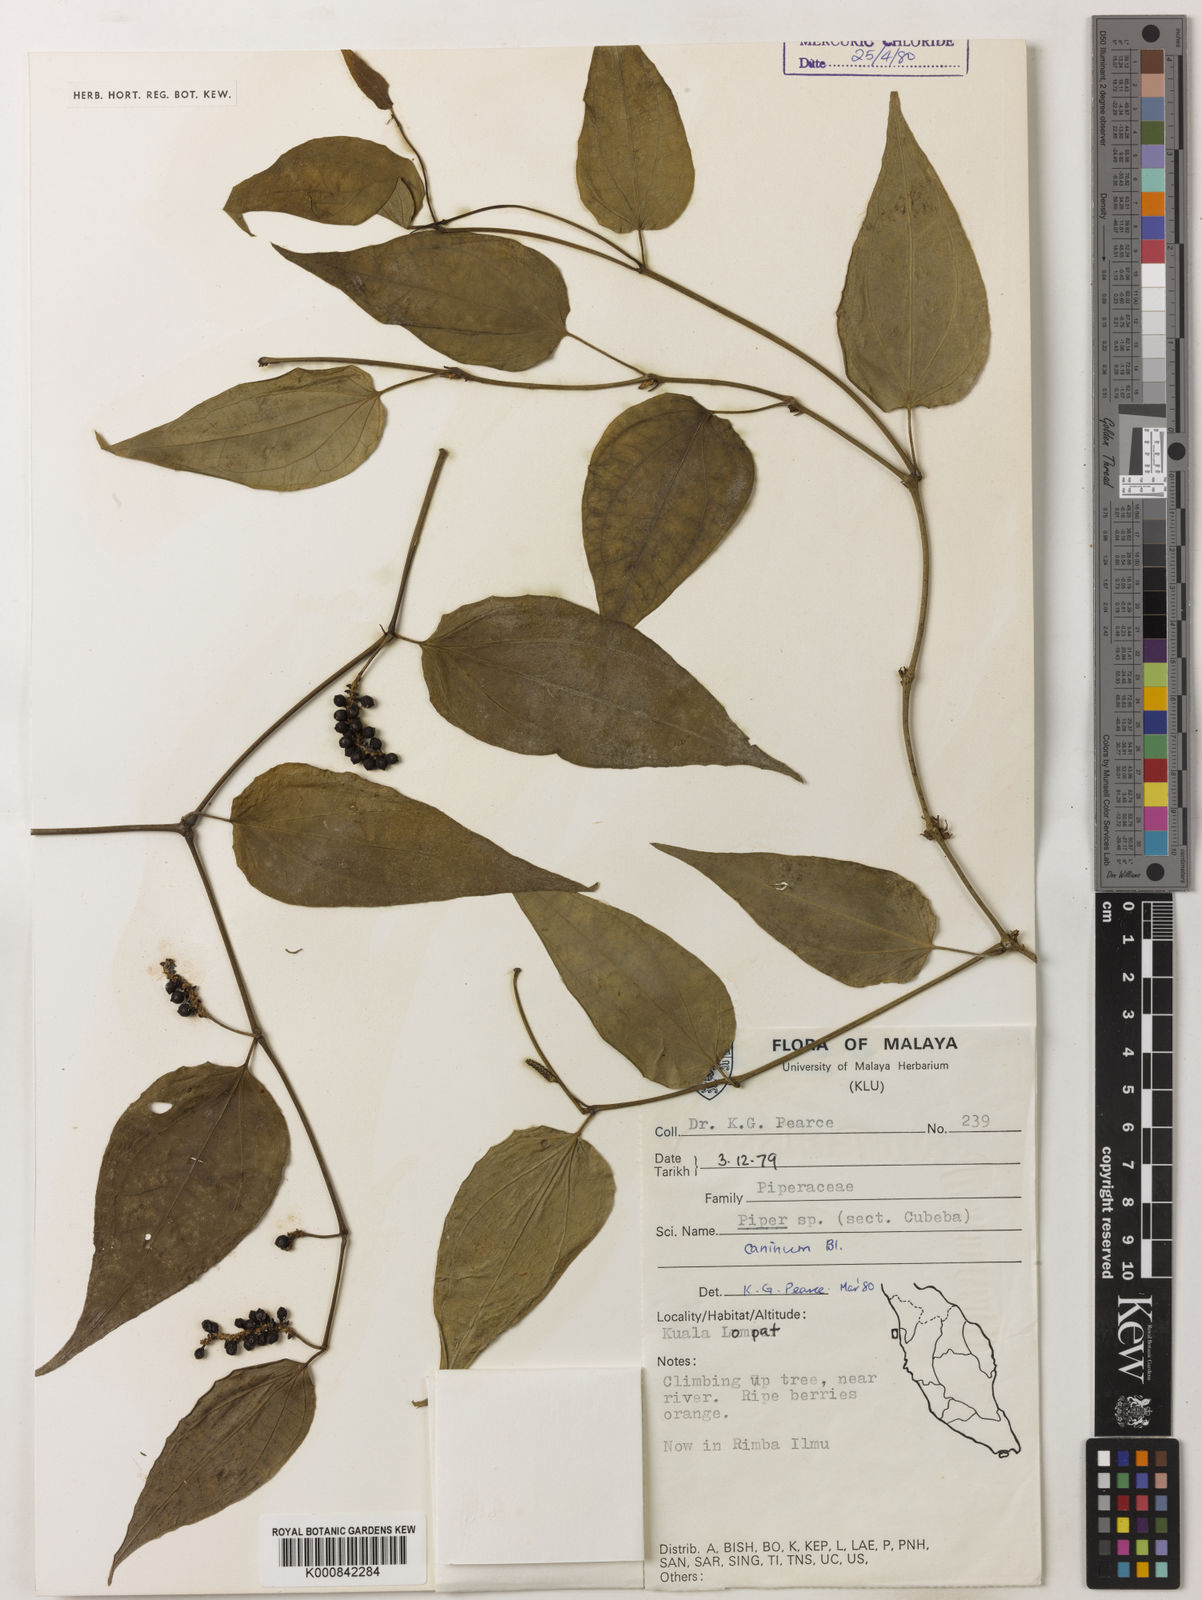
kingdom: Plantae
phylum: Tracheophyta
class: Magnoliopsida
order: Piperales
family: Piperaceae
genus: Piper
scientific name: Piper lanatum
